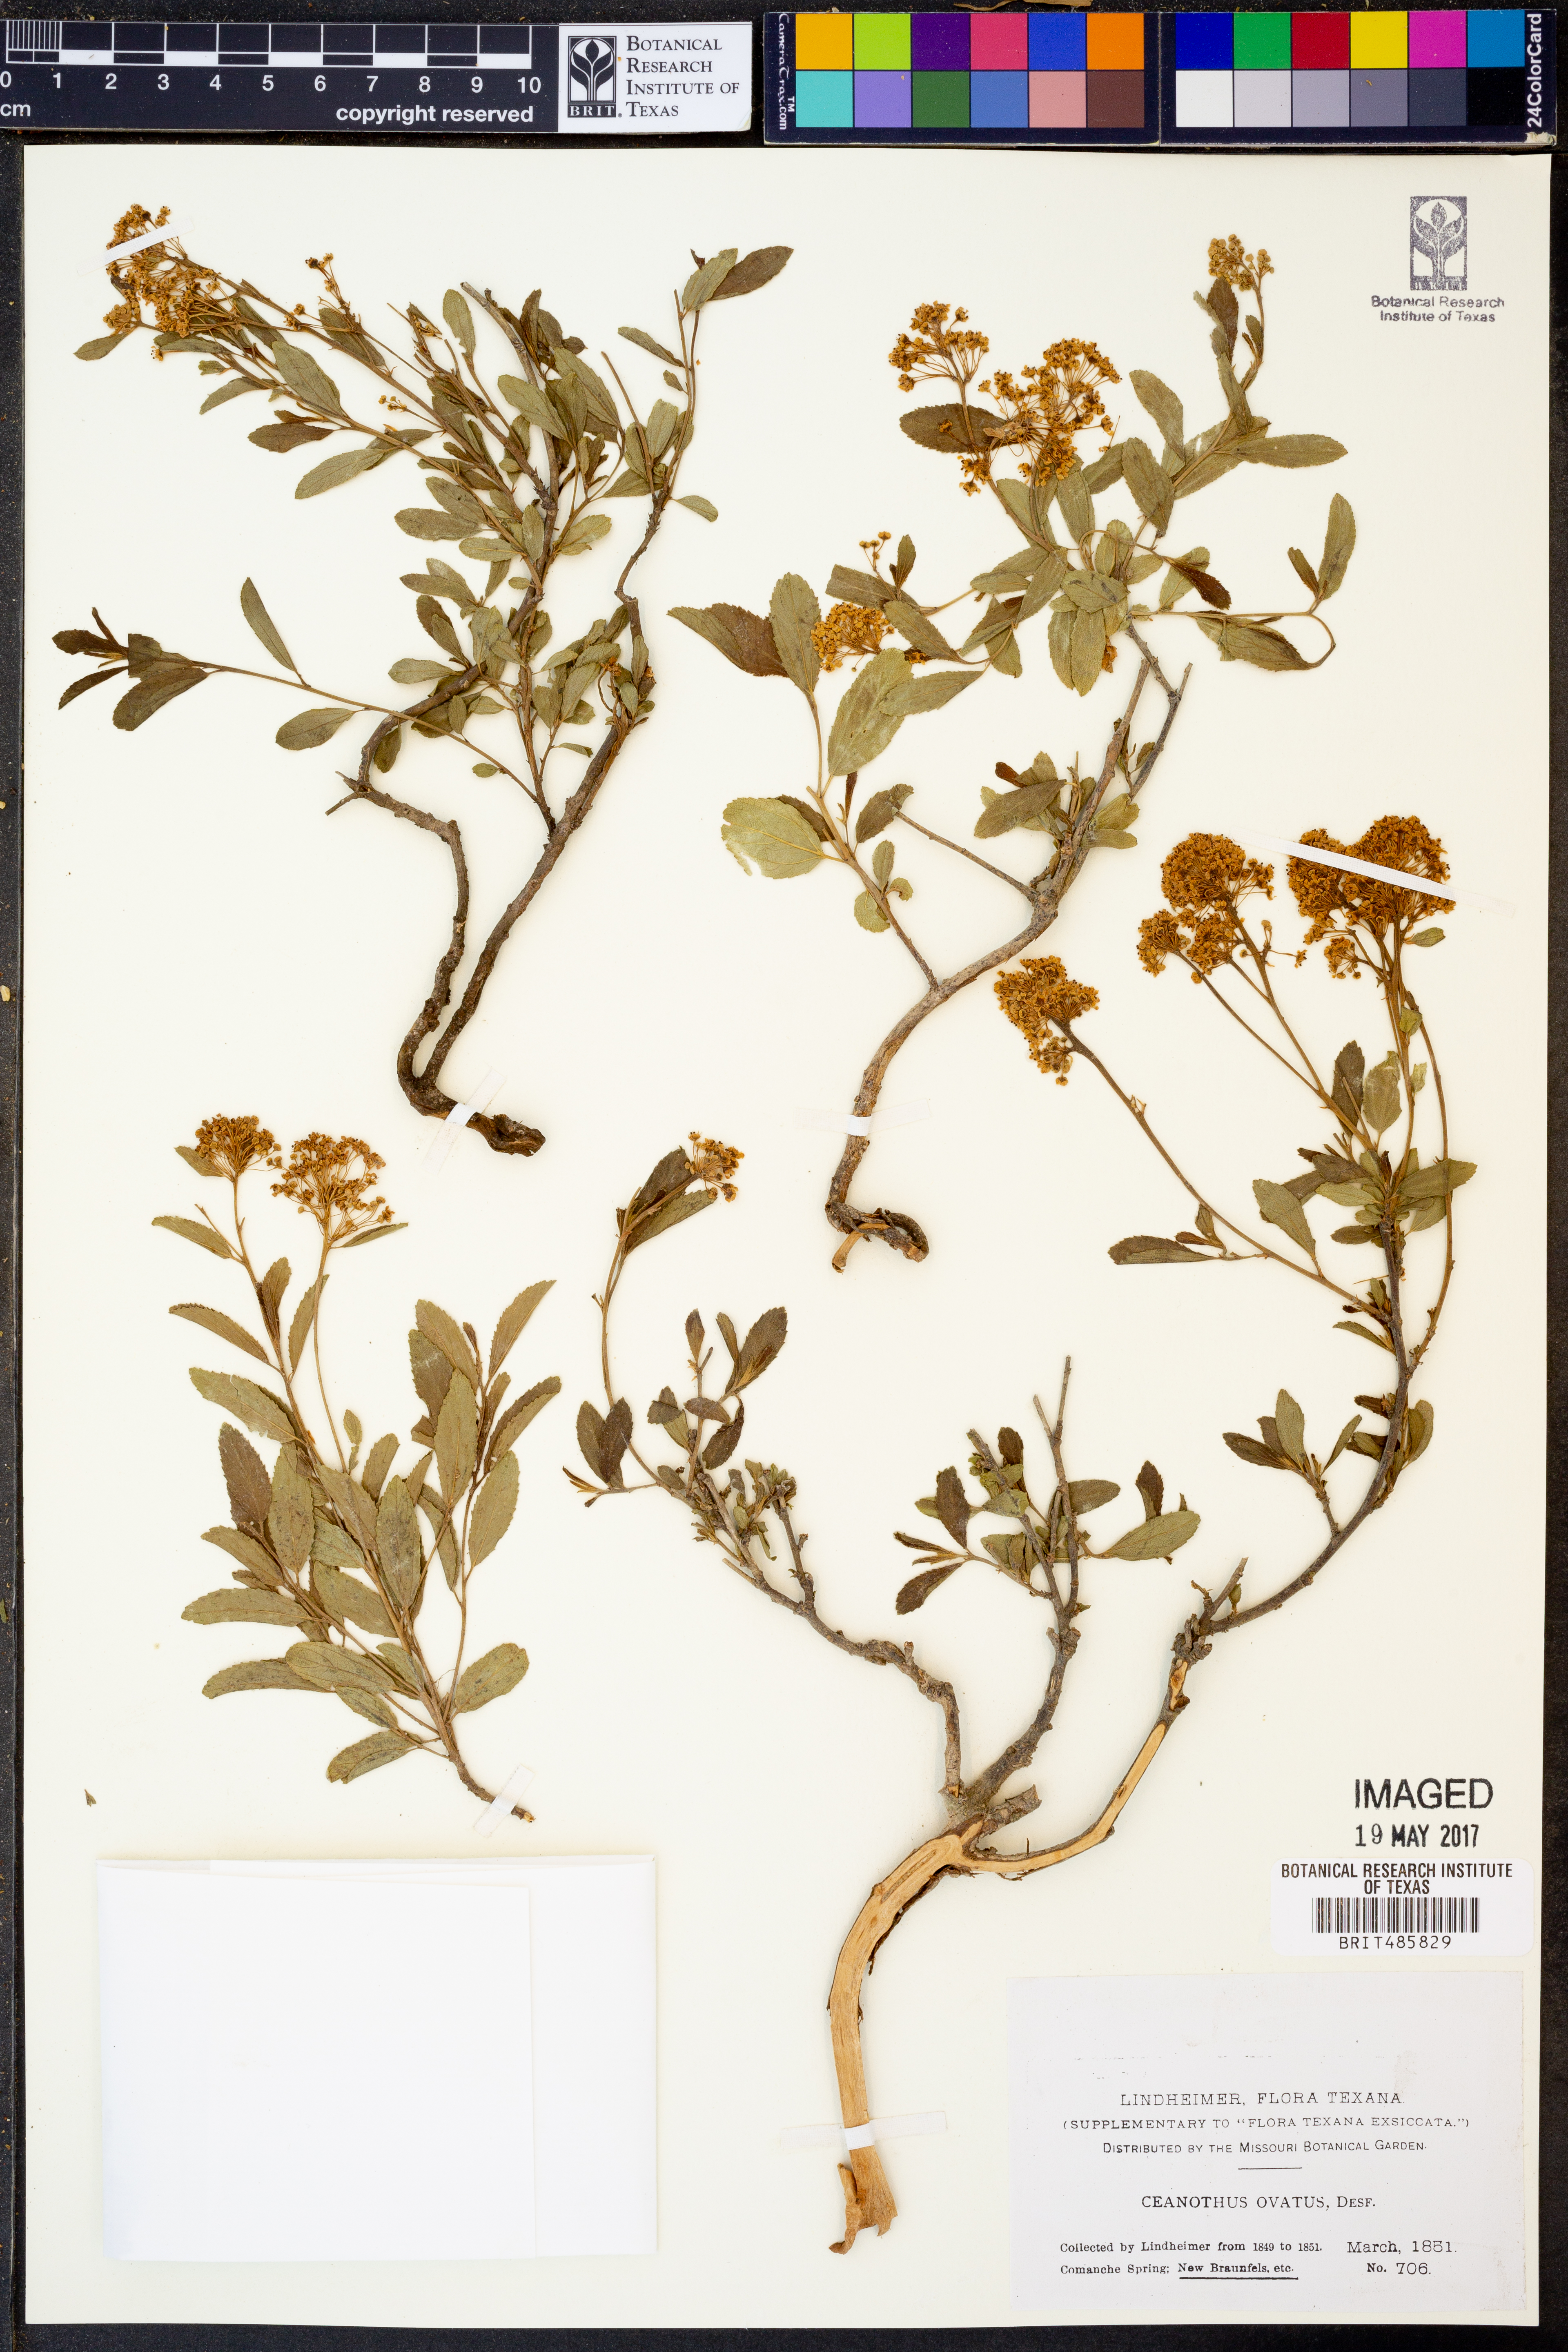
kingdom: Plantae
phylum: Tracheophyta
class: Magnoliopsida
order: Rosales
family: Rhamnaceae
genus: Ceanothus
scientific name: Ceanothus herbaceus
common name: Inland ceanothus
